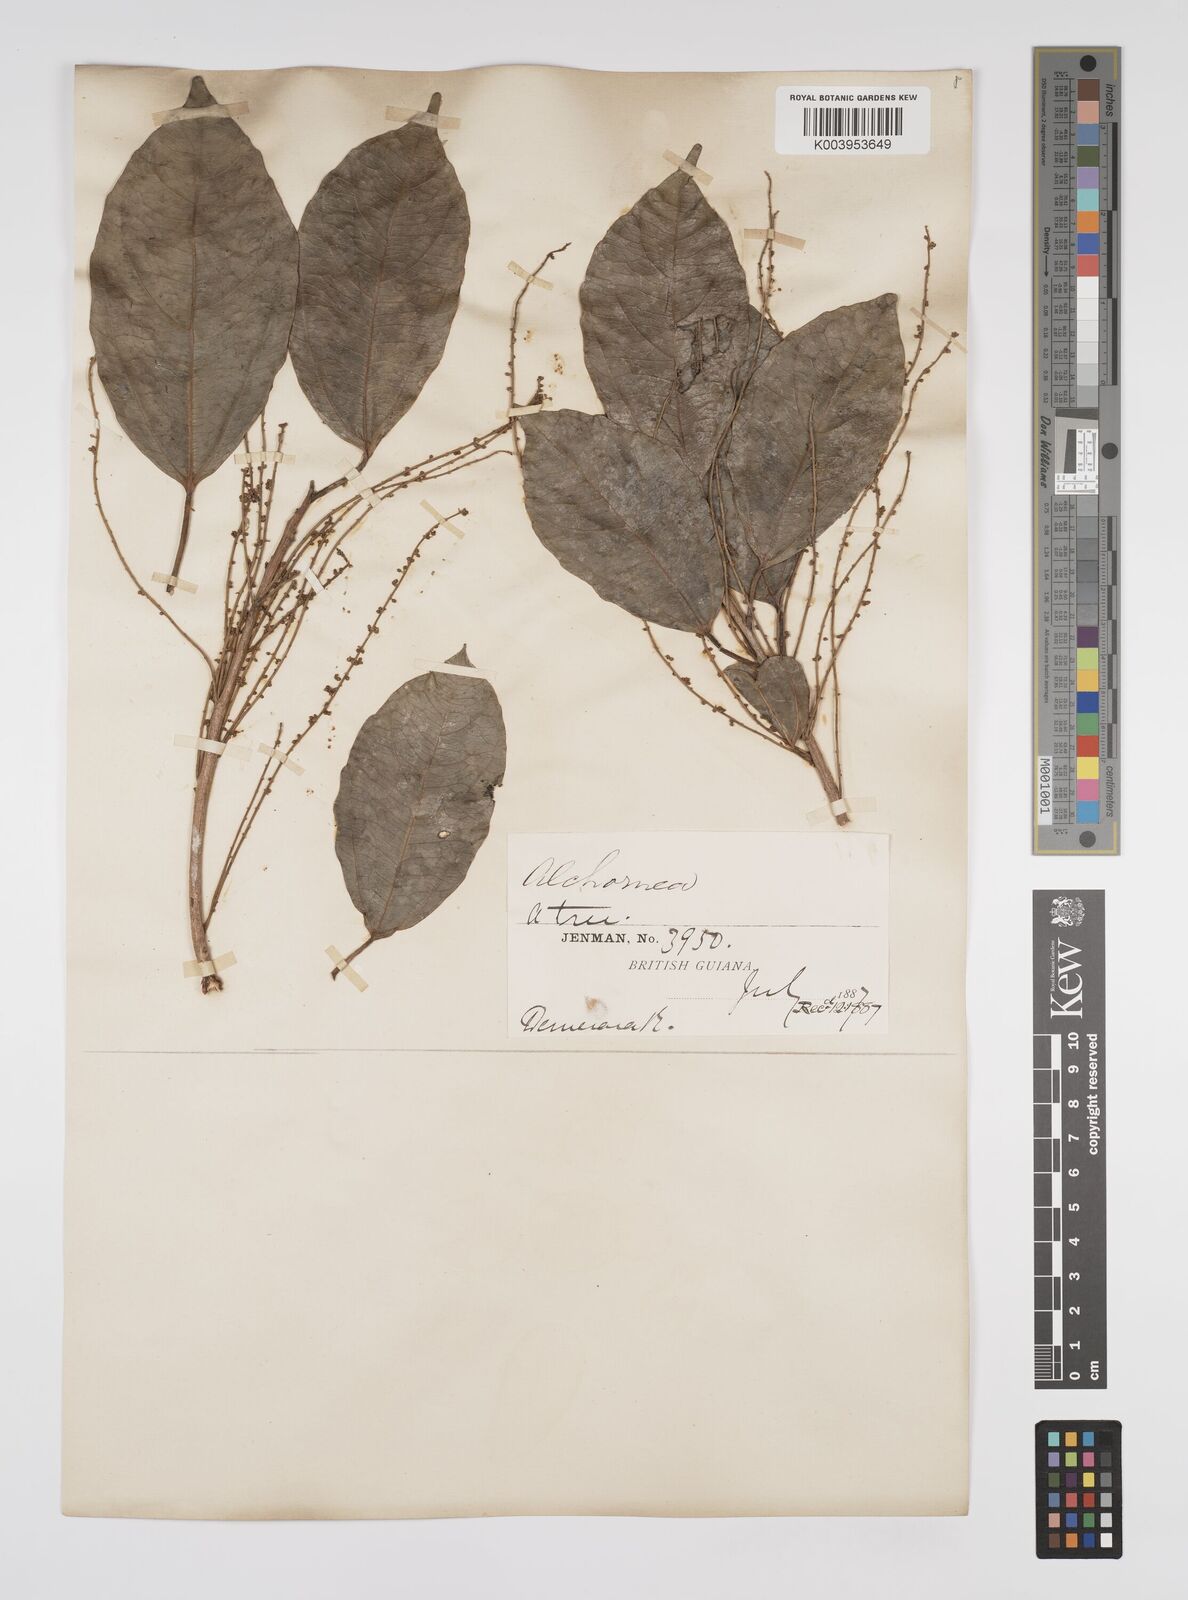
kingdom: Plantae
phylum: Tracheophyta
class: Magnoliopsida
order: Malpighiales
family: Euphorbiaceae
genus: Alchorneopsis
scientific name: Alchorneopsis floribunda
